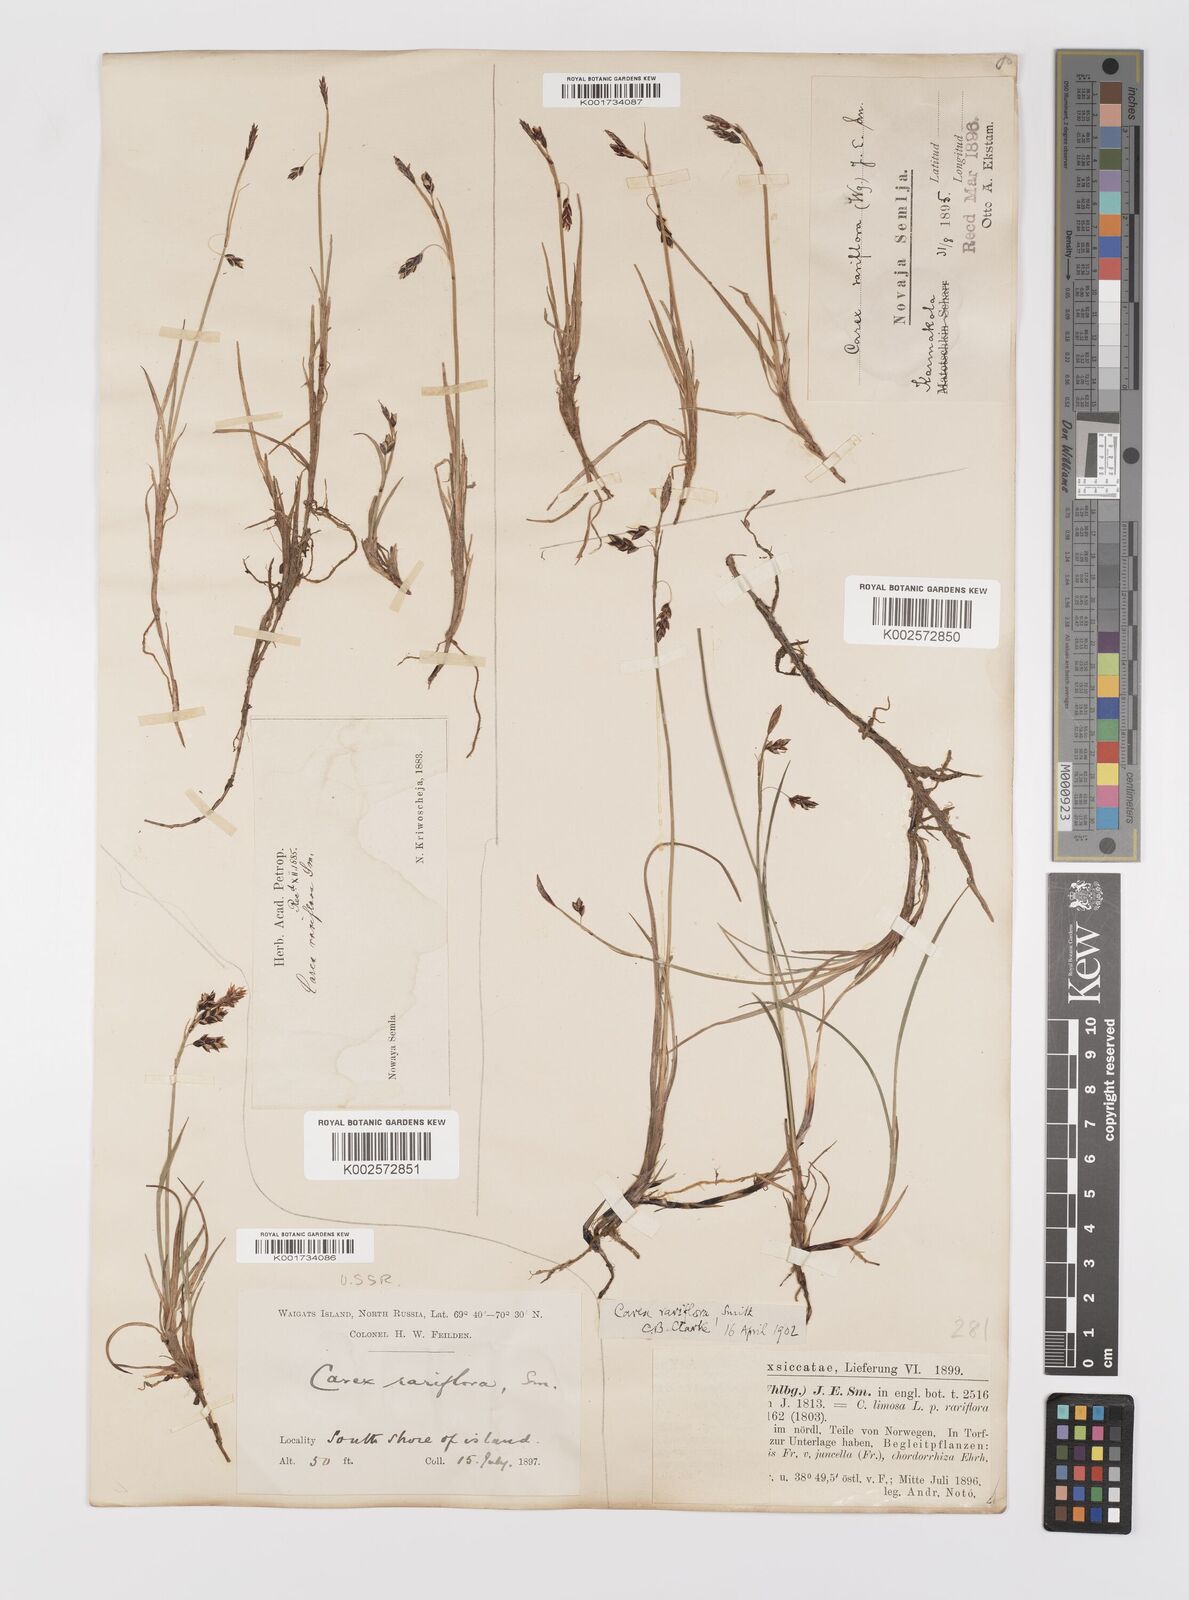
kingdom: Plantae
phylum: Tracheophyta
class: Liliopsida
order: Poales
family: Cyperaceae
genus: Carex
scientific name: Carex rariflora
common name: Loose-flowered alpine sedge
